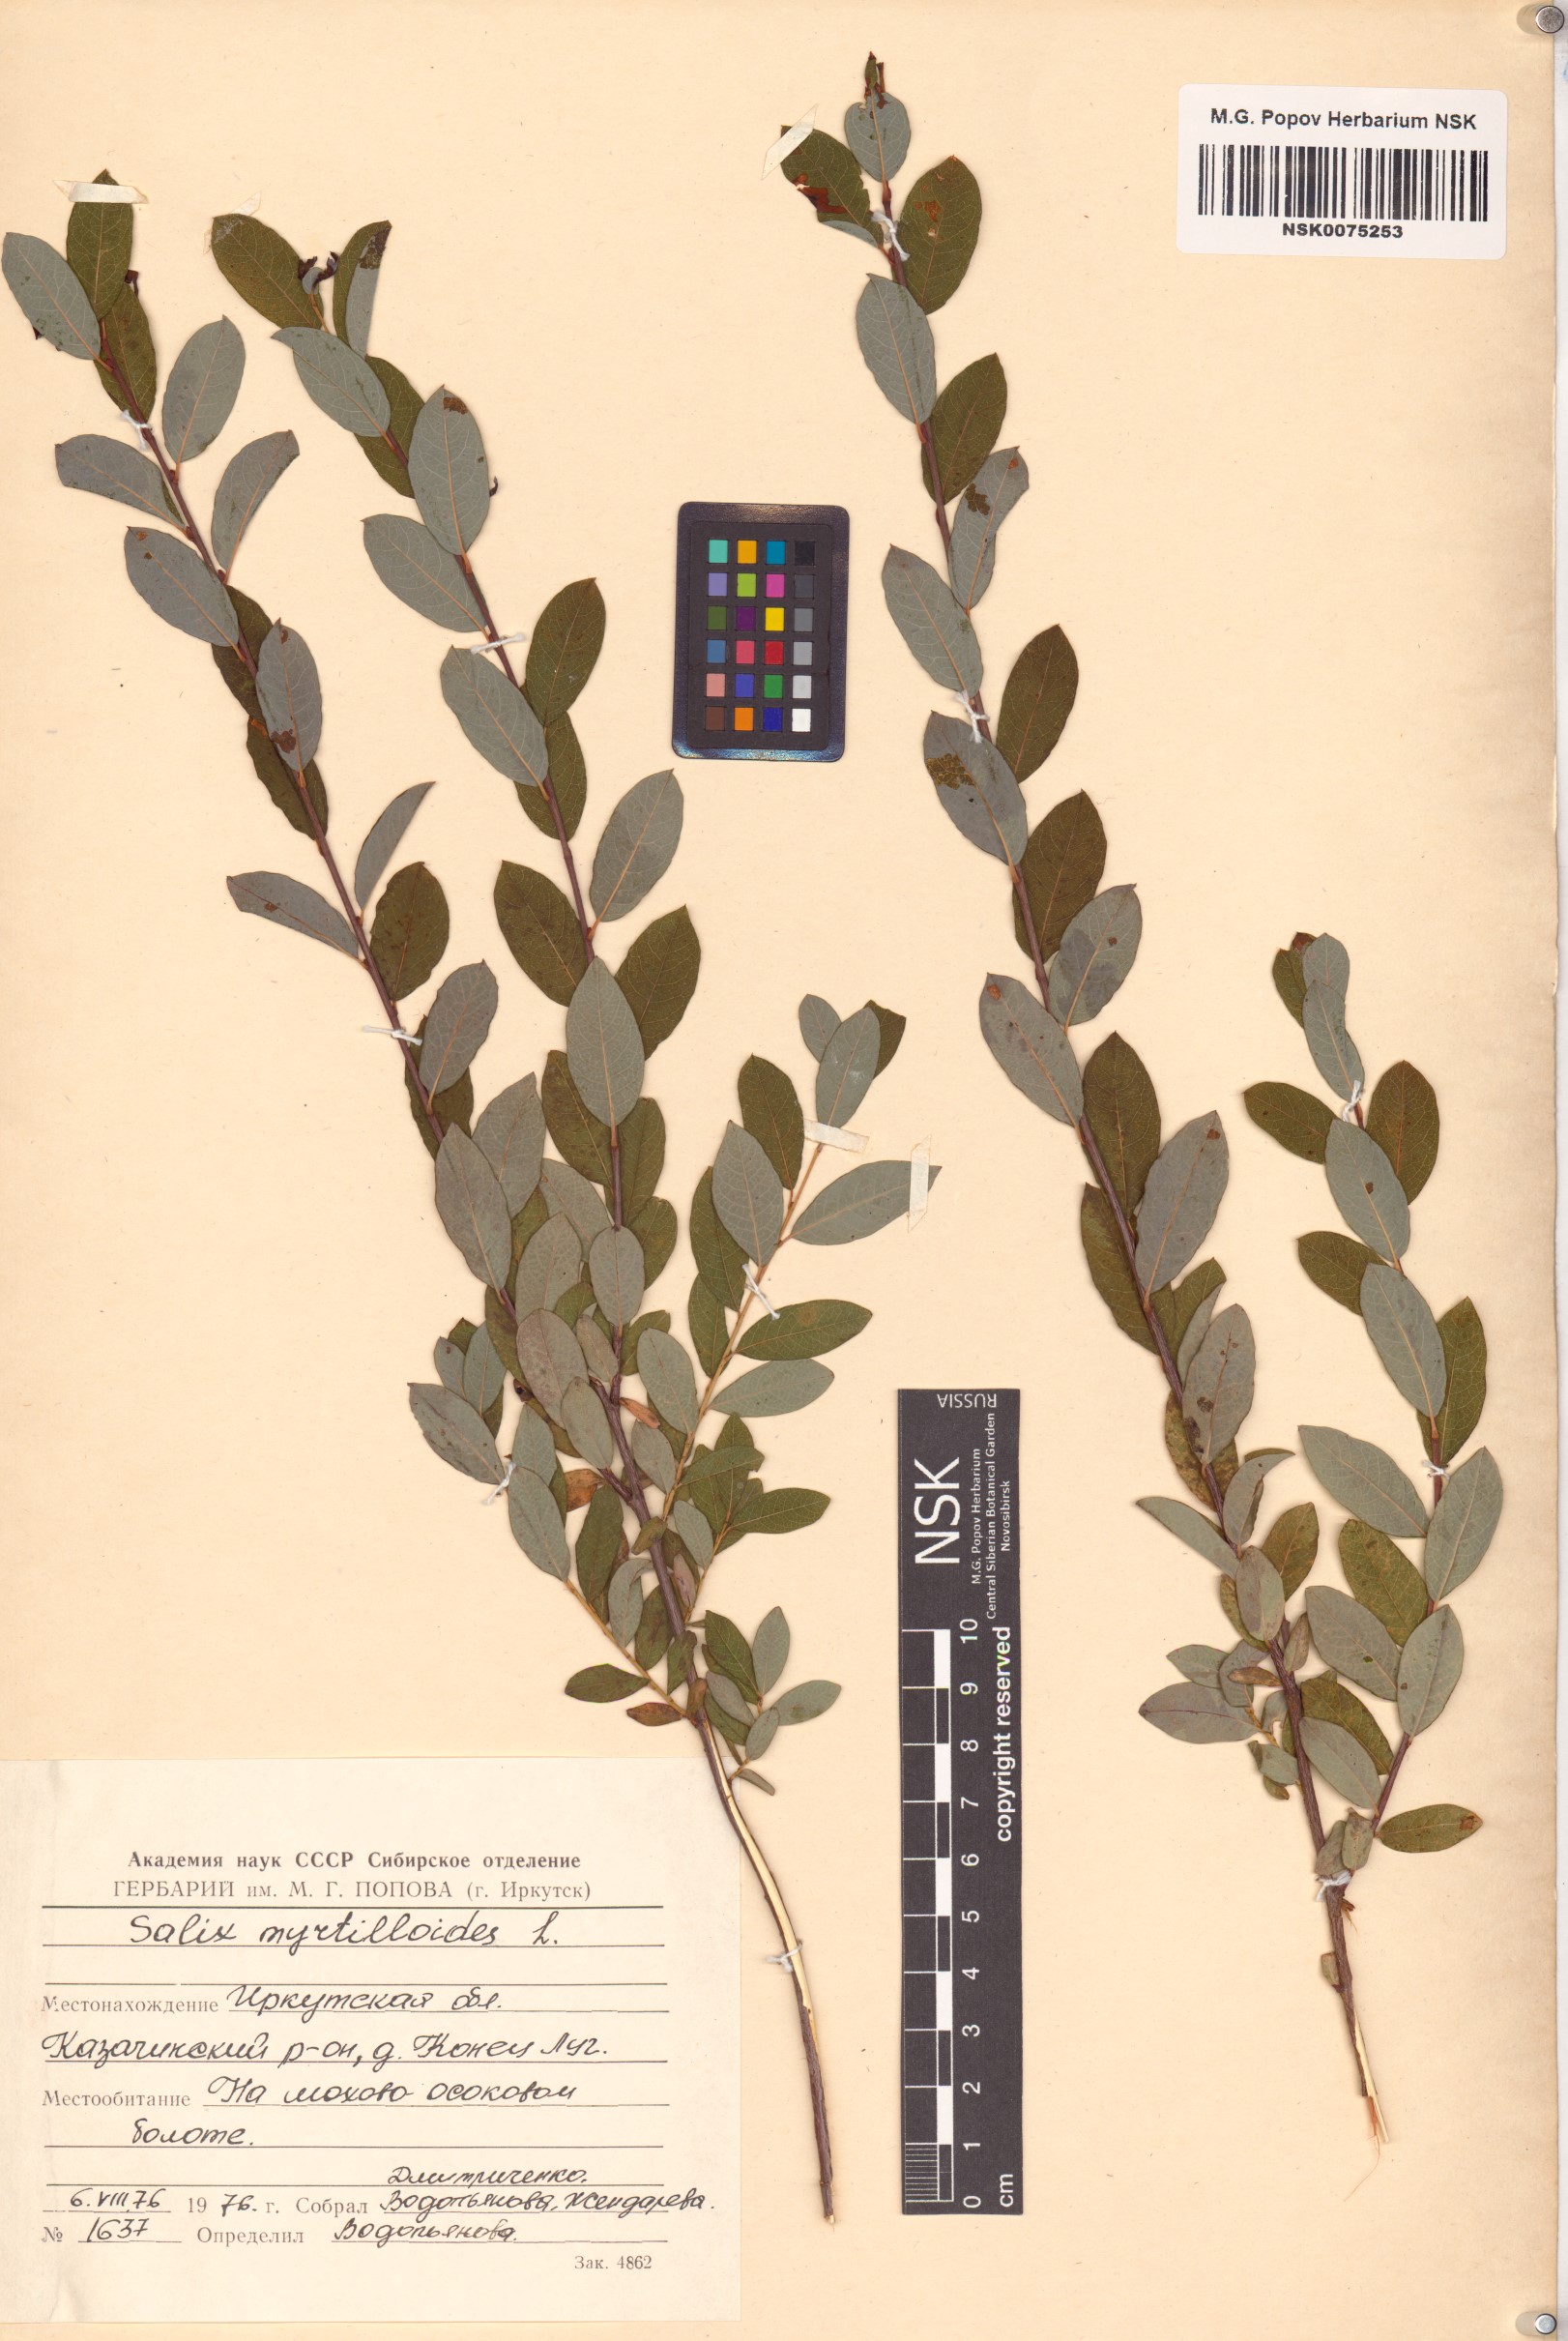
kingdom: Plantae
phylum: Tracheophyta
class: Magnoliopsida
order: Malpighiales
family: Salicaceae
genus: Salix
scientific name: Salix myrtilloides
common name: Myrtle-leaved willow
